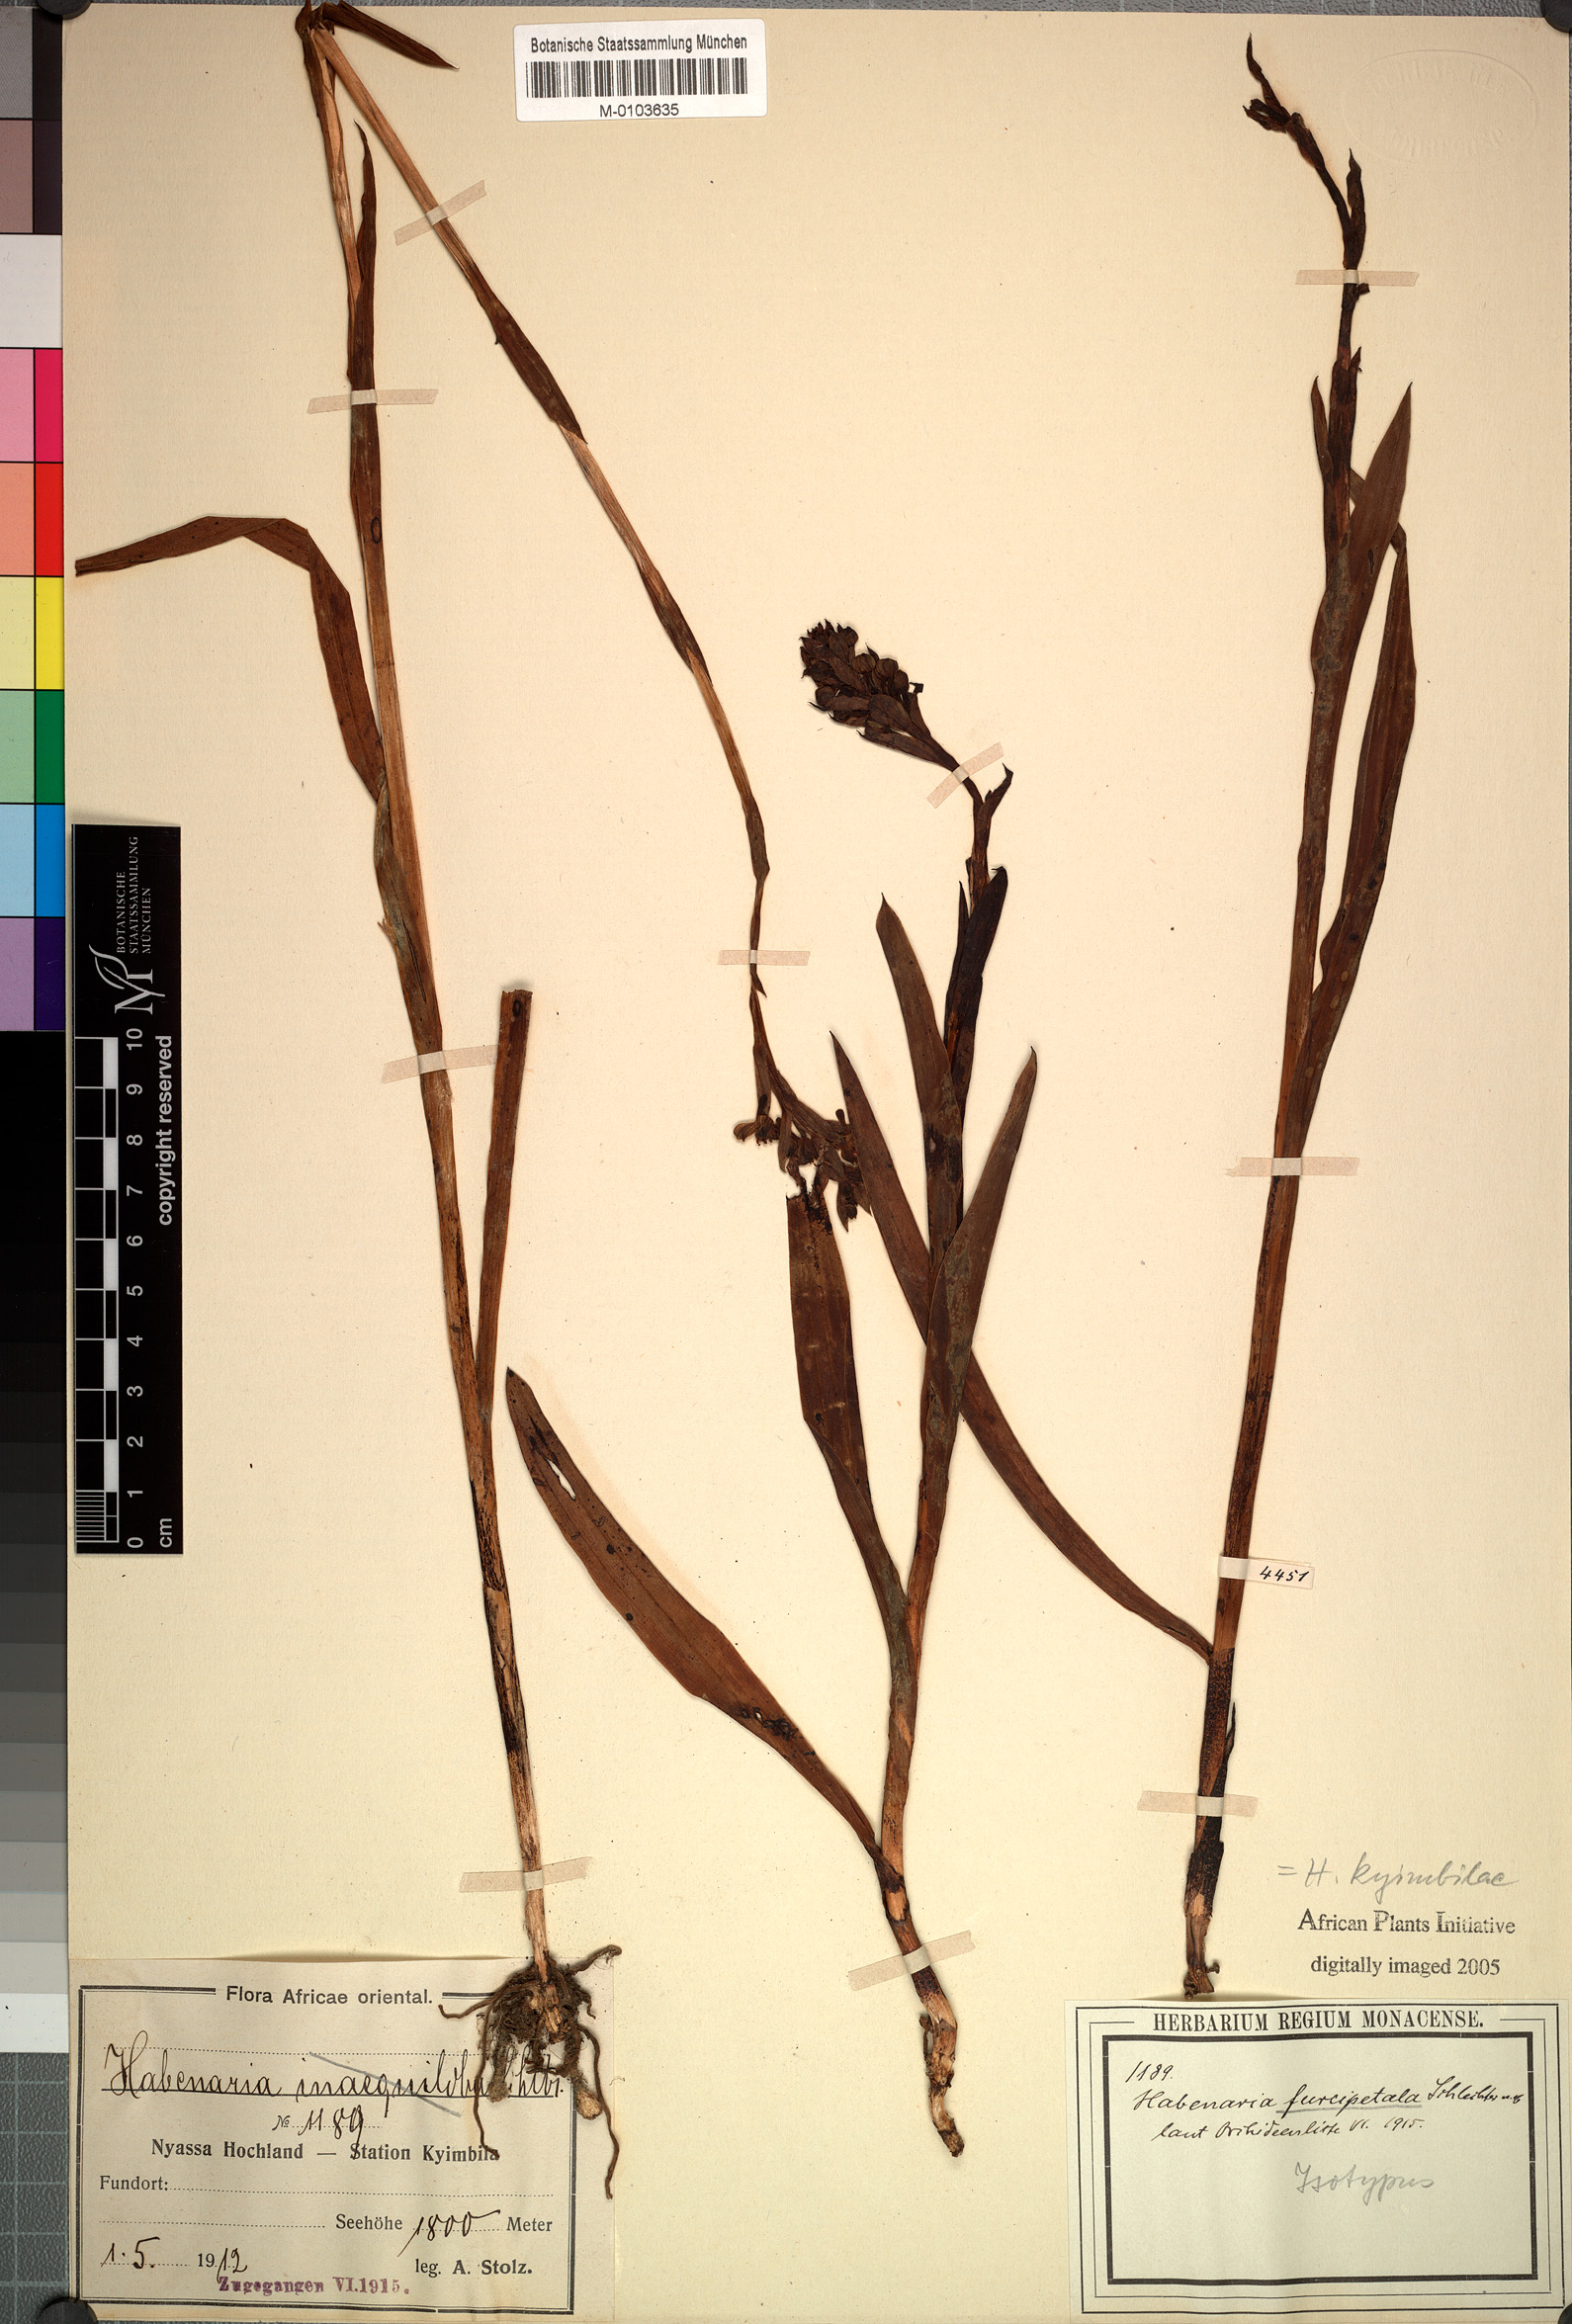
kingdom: Plantae
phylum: Tracheophyta
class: Liliopsida
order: Asparagales
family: Orchidaceae
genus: Habenaria
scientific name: Habenaria kyimbilae
